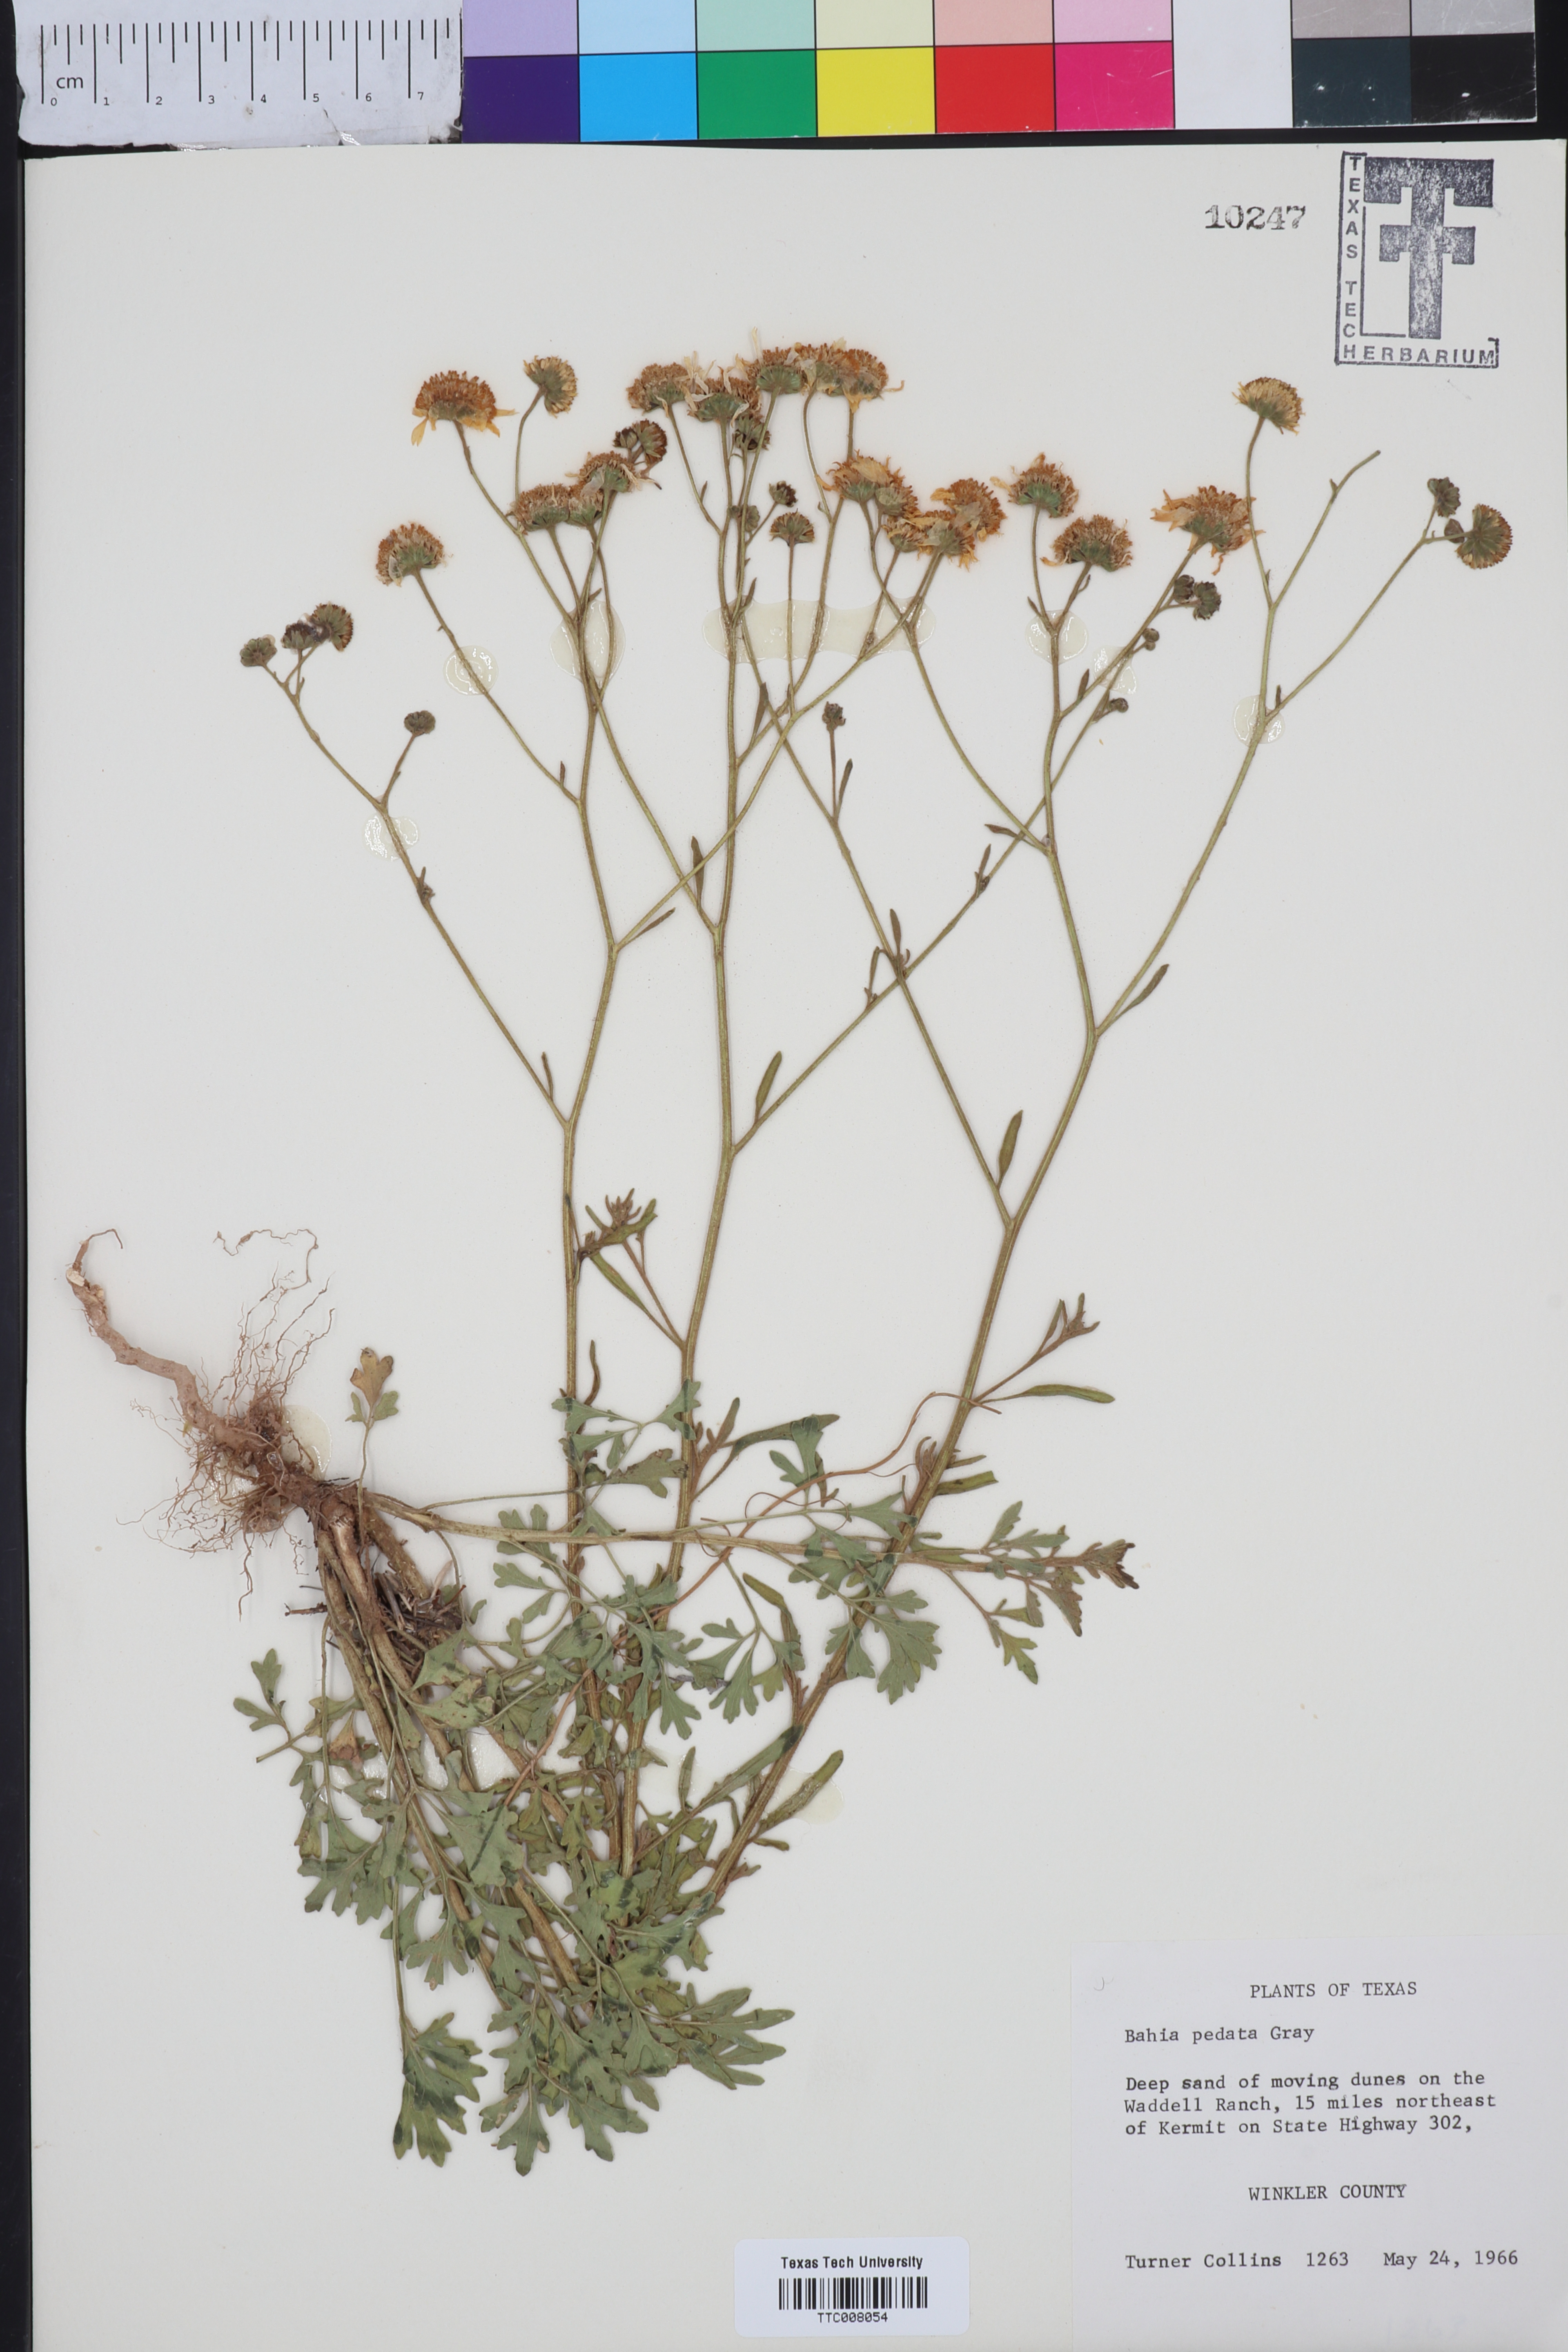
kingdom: Plantae
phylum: Tracheophyta
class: Magnoliopsida
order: Asterales
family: Asteraceae
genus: Hymenothrix
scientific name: Hymenothrix pedata
